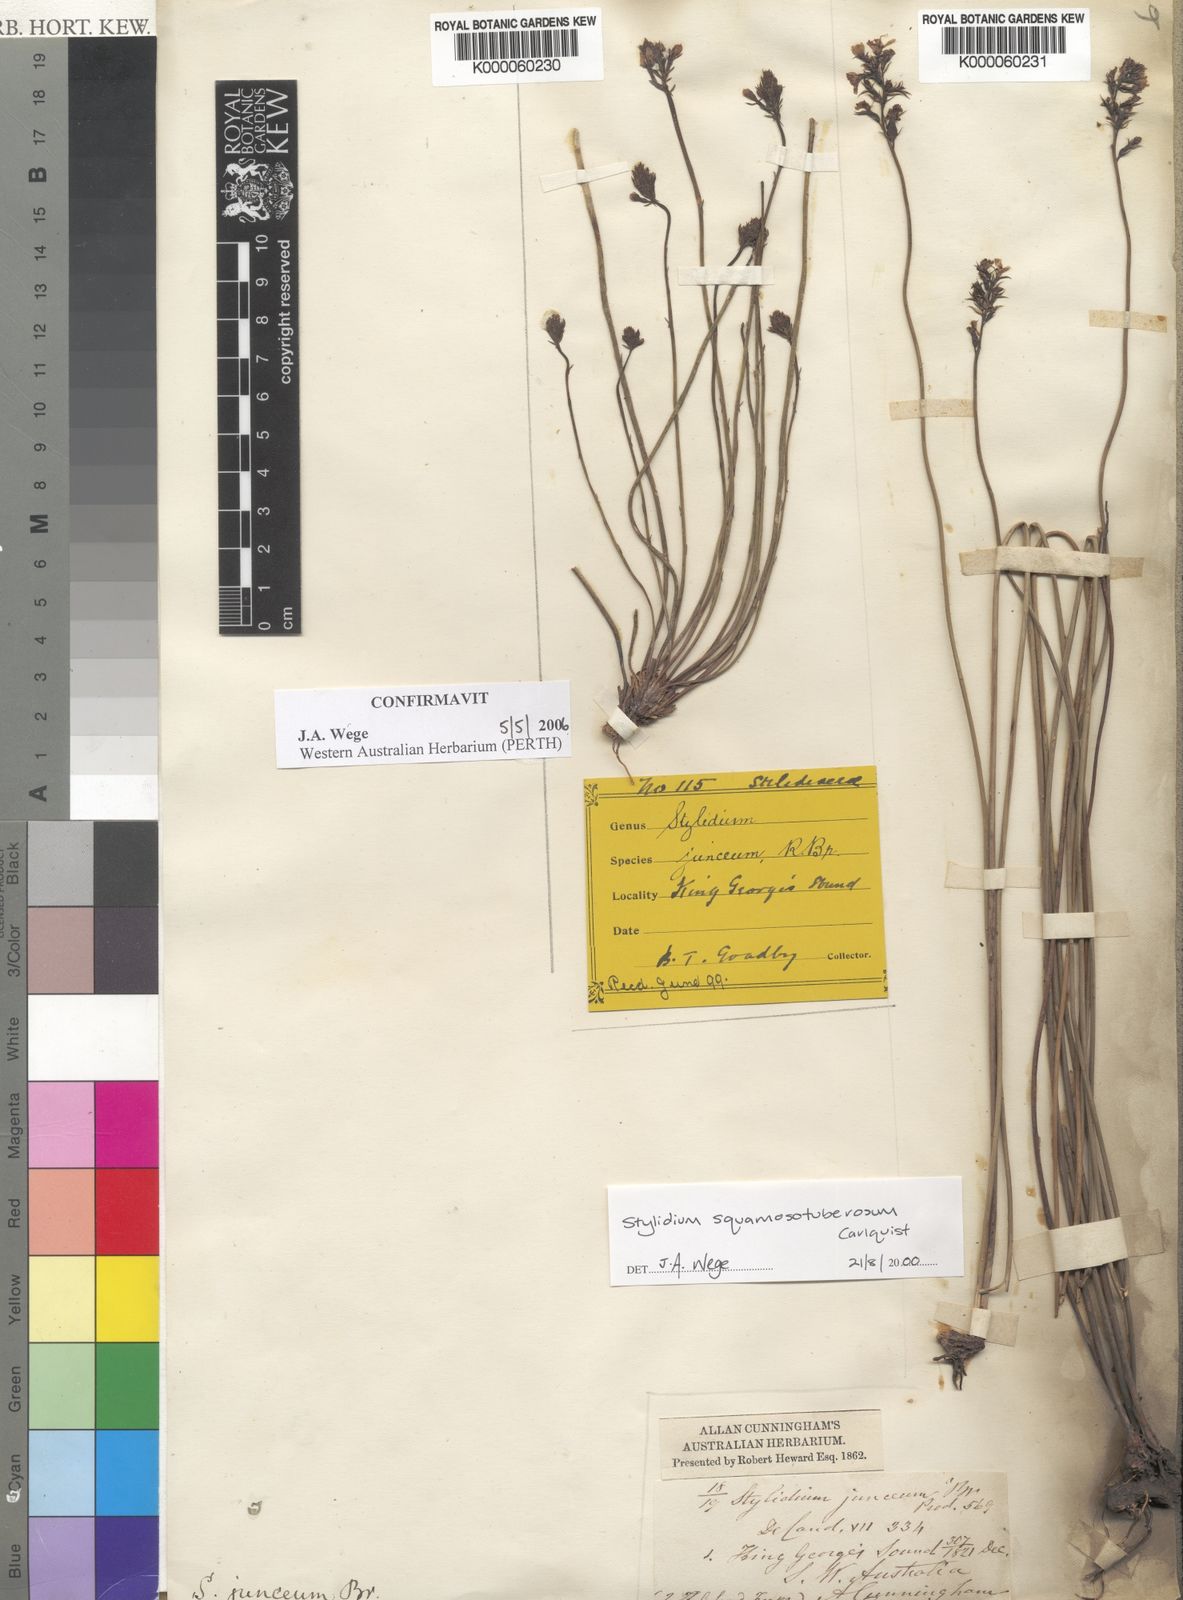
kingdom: Plantae
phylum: Tracheophyta
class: Magnoliopsida
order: Asterales
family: Stylidiaceae
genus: Stylidium
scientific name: Stylidium junceum
